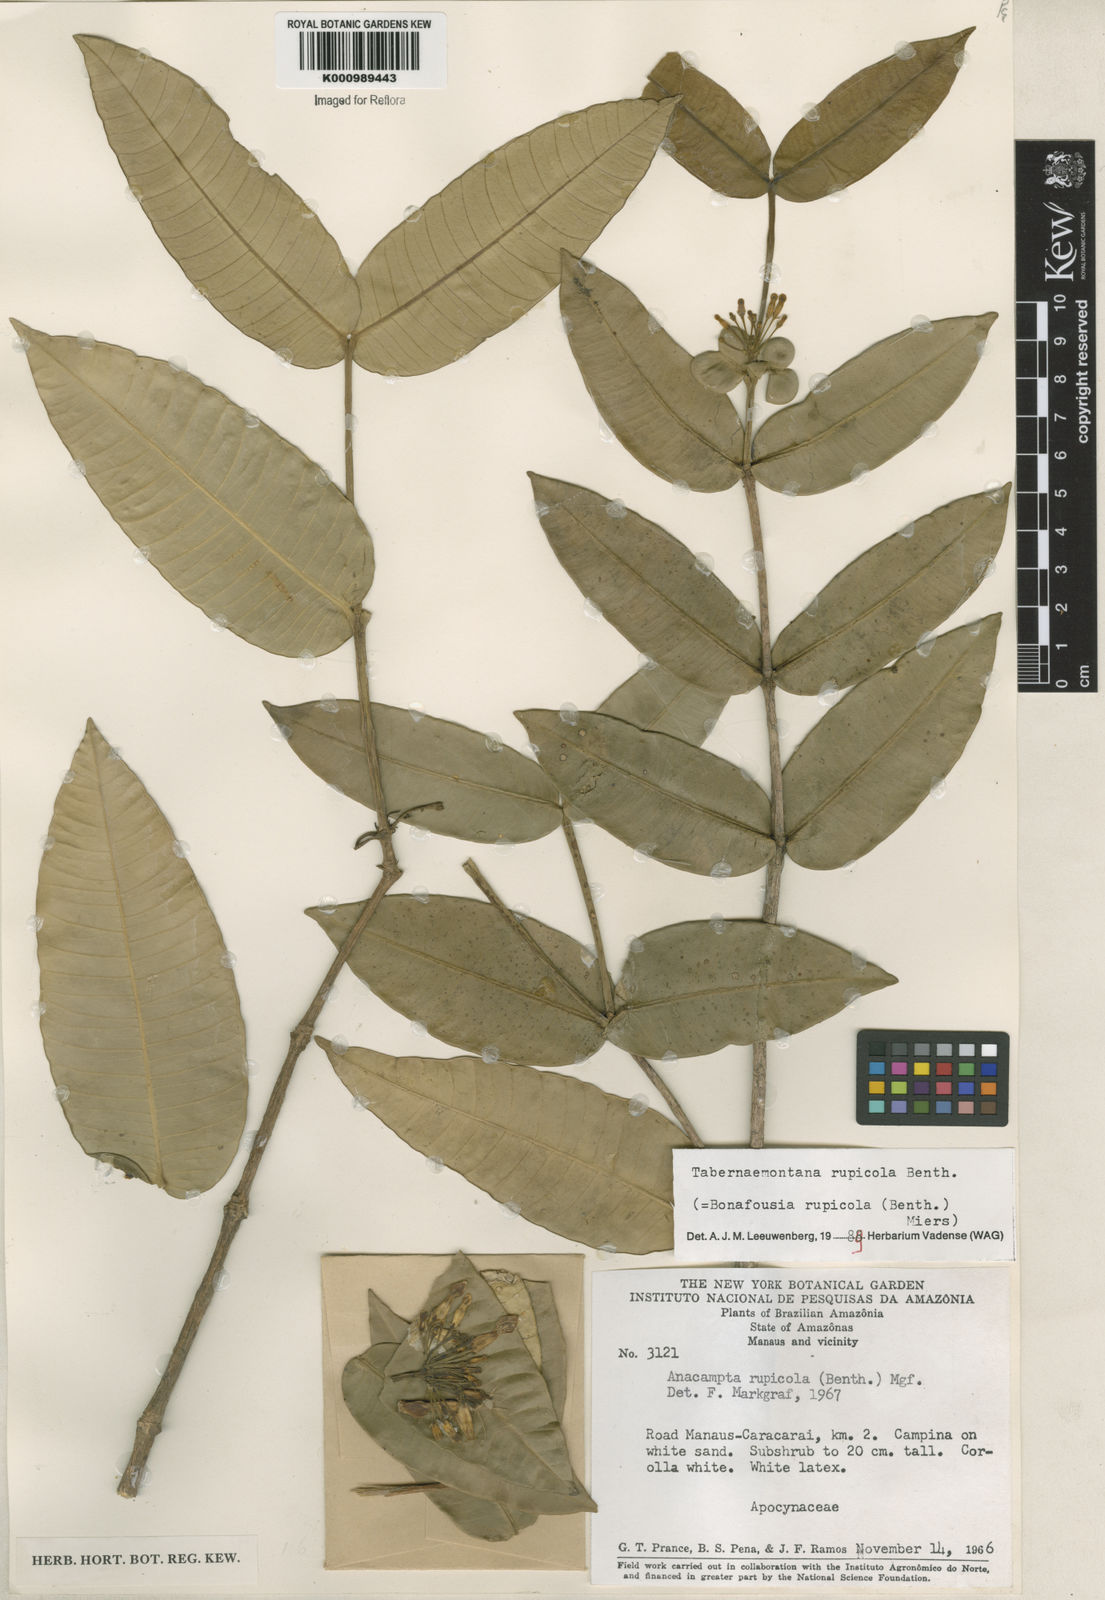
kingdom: Plantae
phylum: Tracheophyta
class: Magnoliopsida
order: Gentianales
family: Apocynaceae
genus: Tabernaemontana
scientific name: Tabernaemontana rupicola
